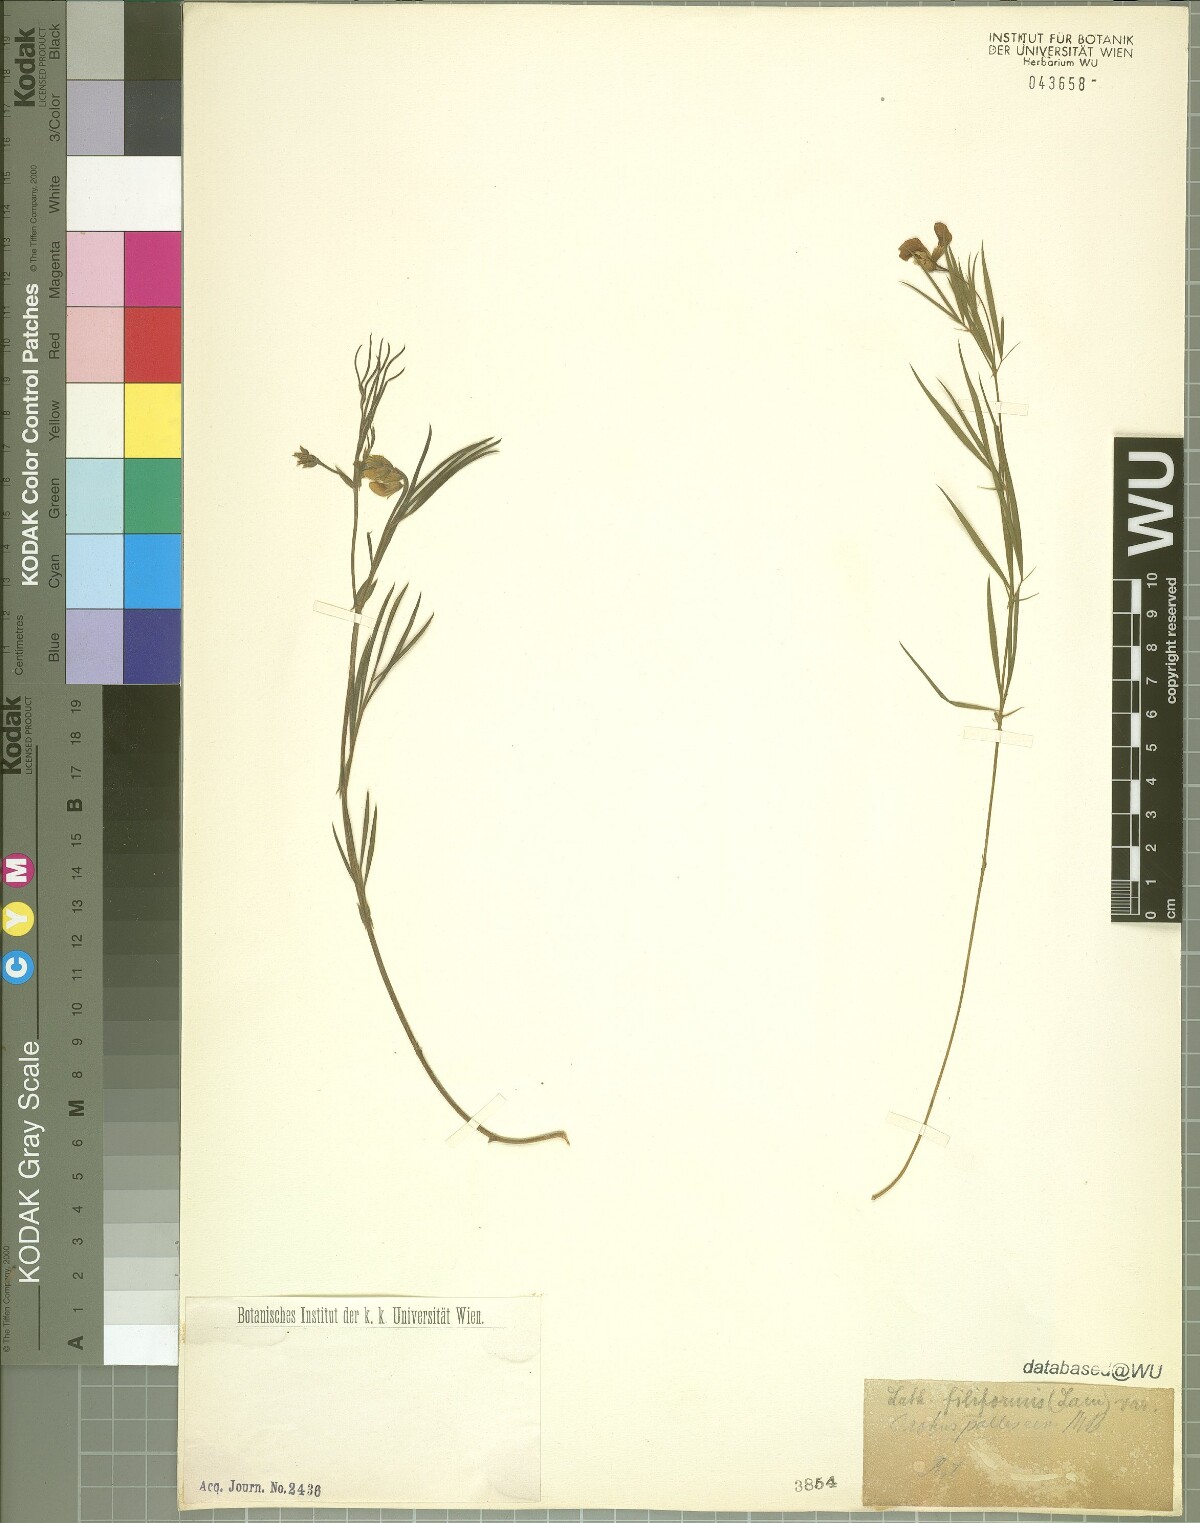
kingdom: Plantae
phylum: Tracheophyta
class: Magnoliopsida
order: Fabales
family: Fabaceae
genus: Lathyrus
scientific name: Lathyrus pallescens
